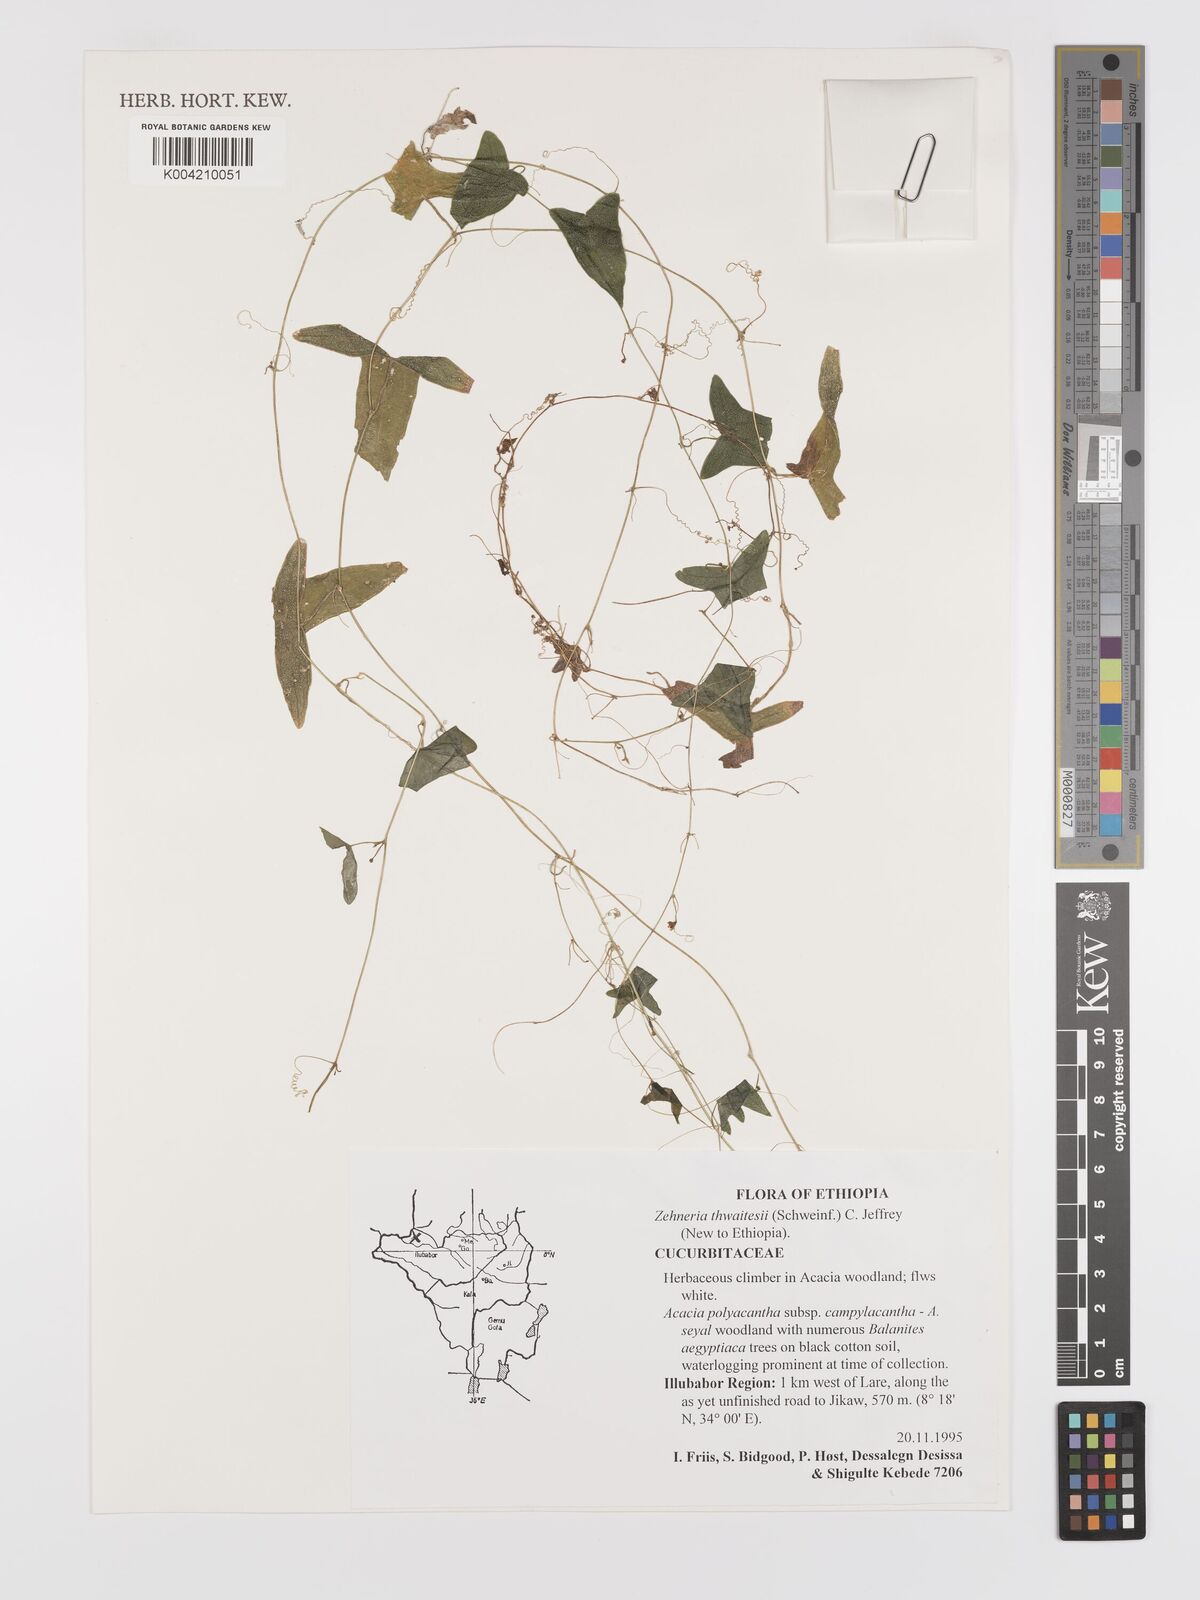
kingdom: Plantae
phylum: Tracheophyta
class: Magnoliopsida
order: Cucurbitales
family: Cucurbitaceae
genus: Zehneria
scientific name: Zehneria thwaitesii
